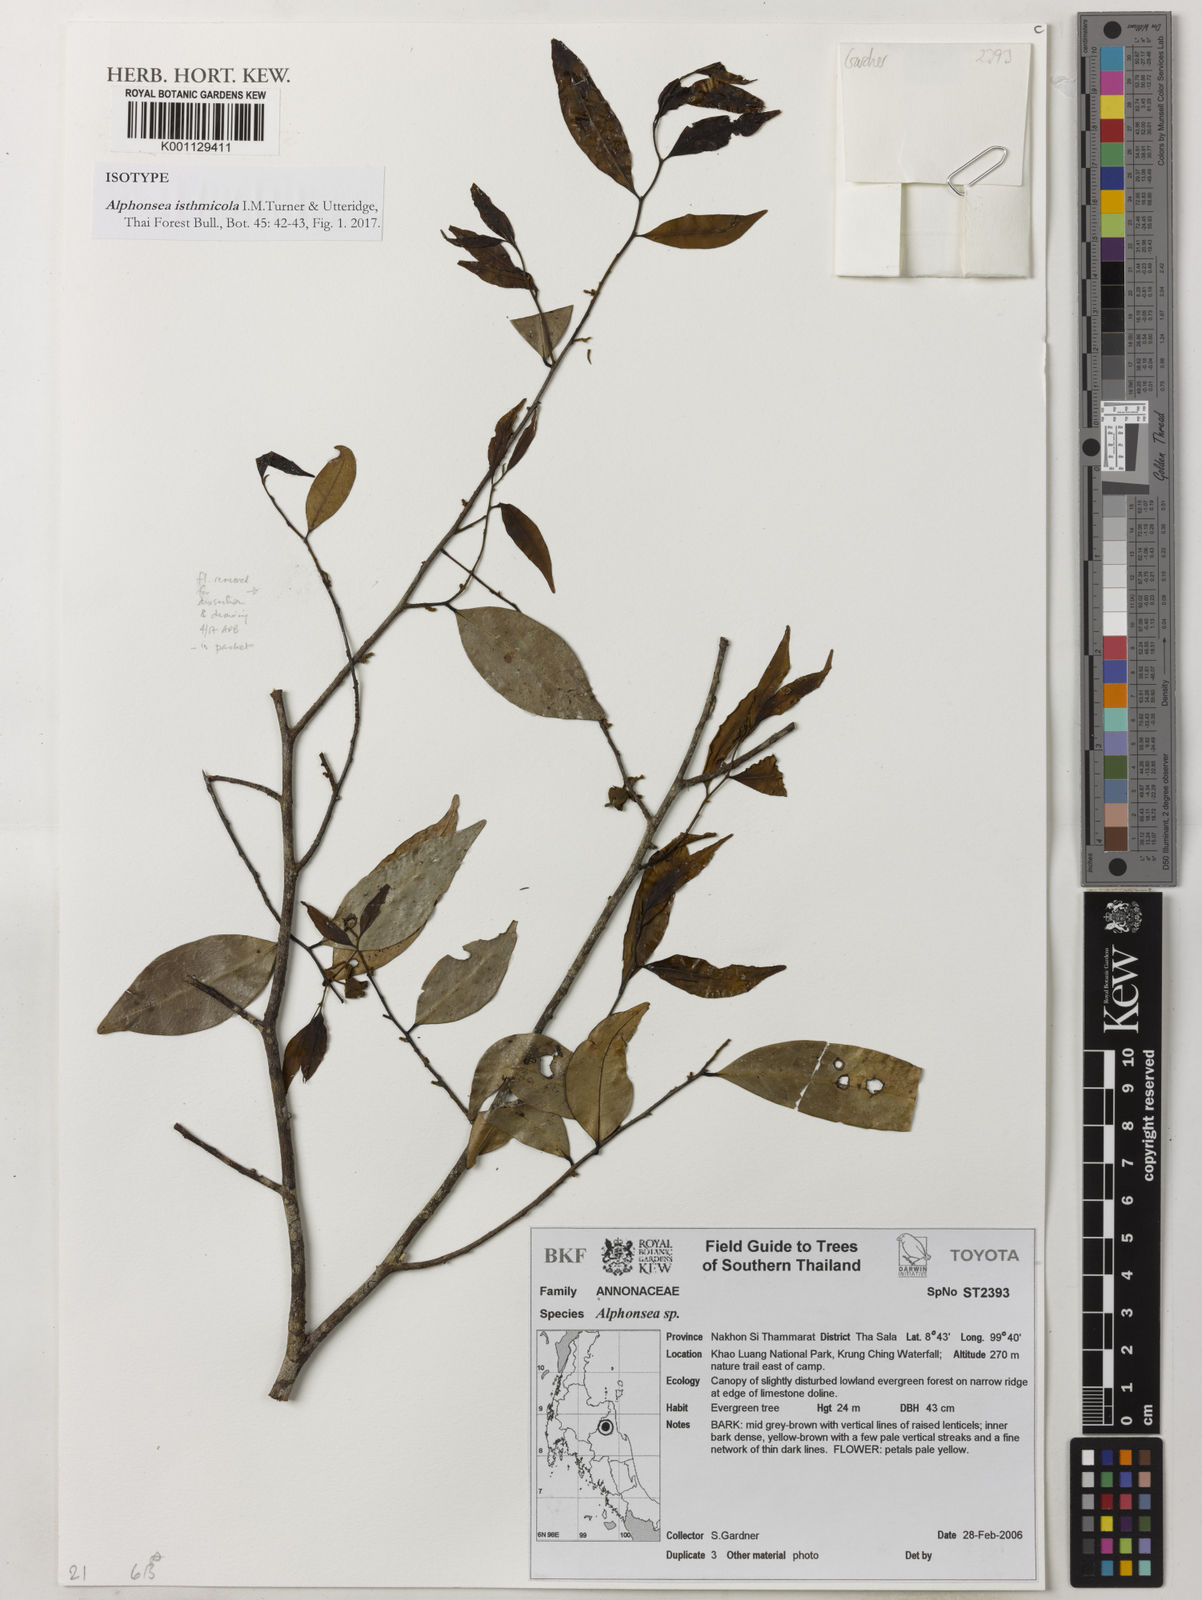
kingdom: Plantae
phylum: Tracheophyta
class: Magnoliopsida
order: Magnoliales
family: Annonaceae
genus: Alphonsea
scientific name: Alphonsea isthmicola
